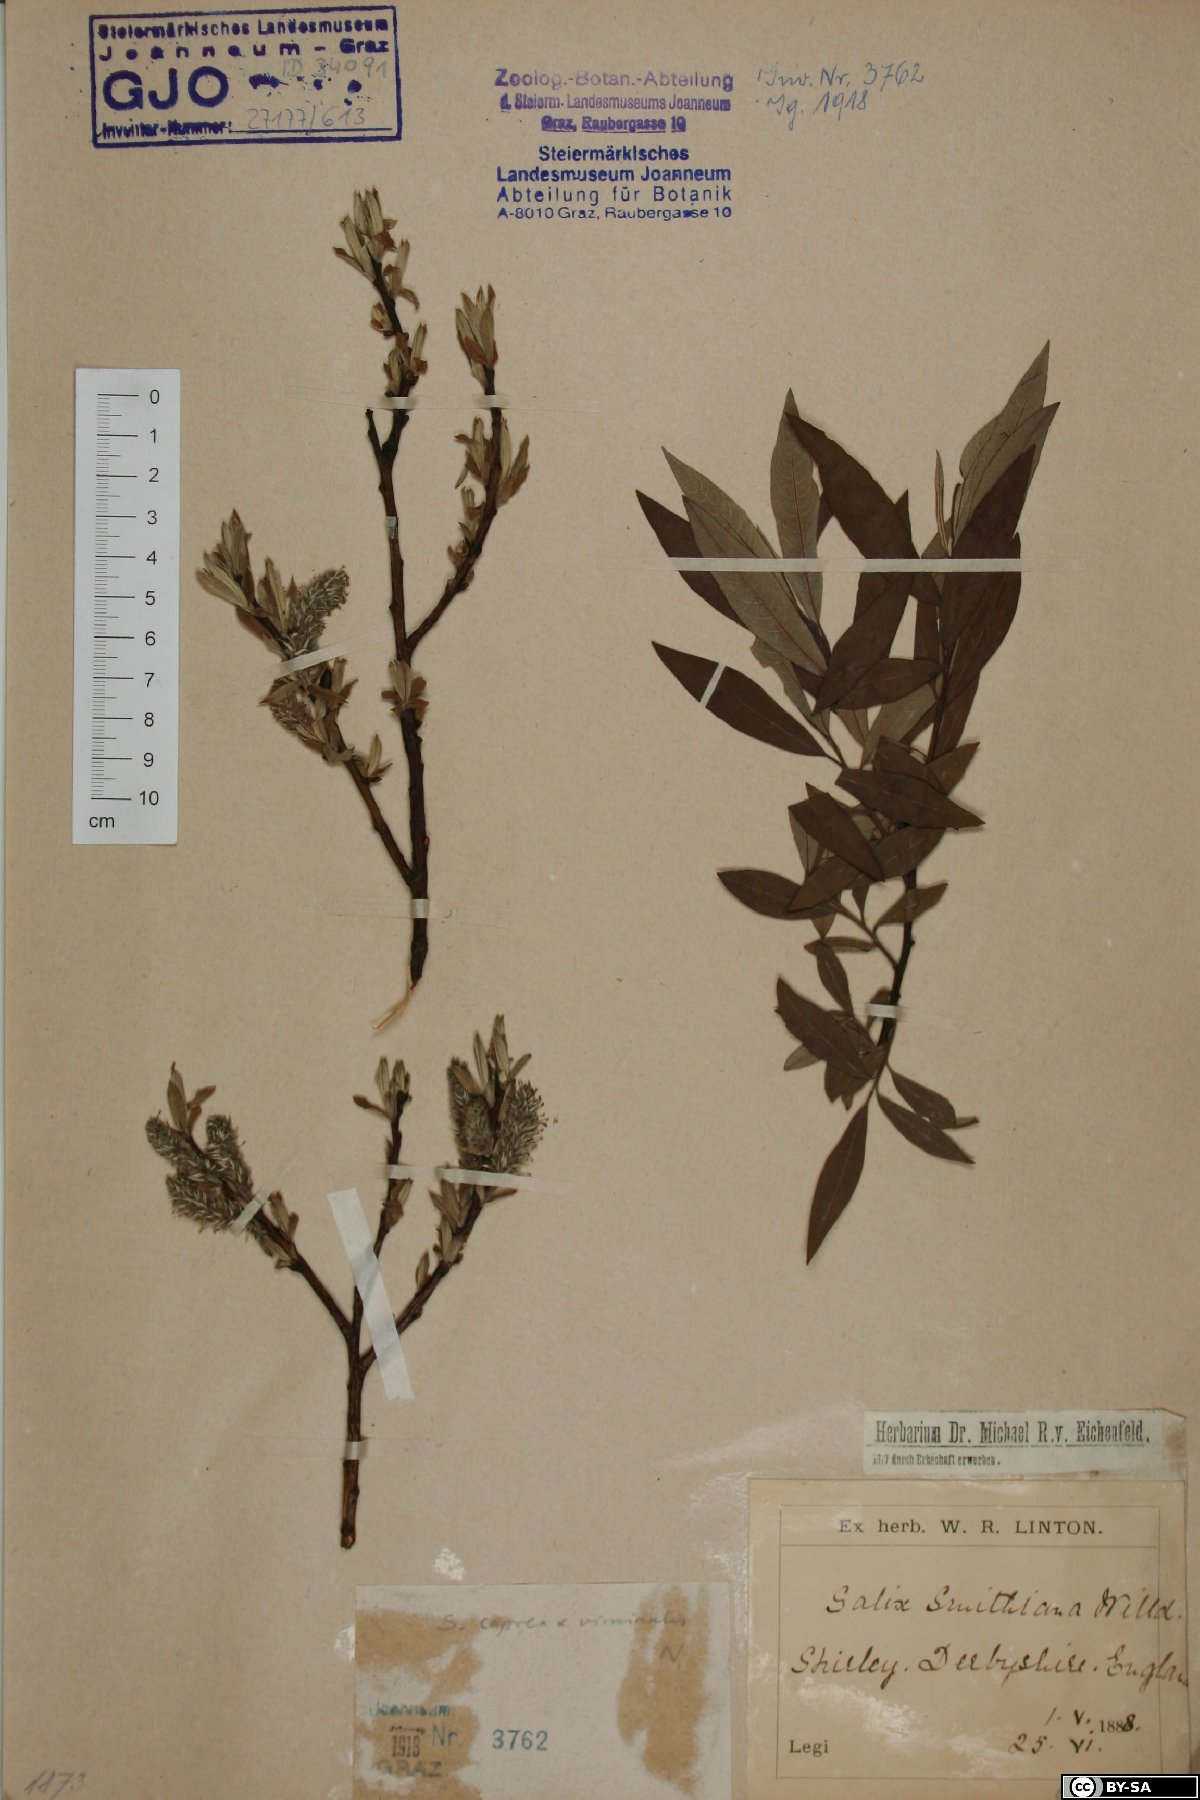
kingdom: Plantae
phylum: Tracheophyta
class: Magnoliopsida
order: Malpighiales
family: Salicaceae
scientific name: Salicaceae
